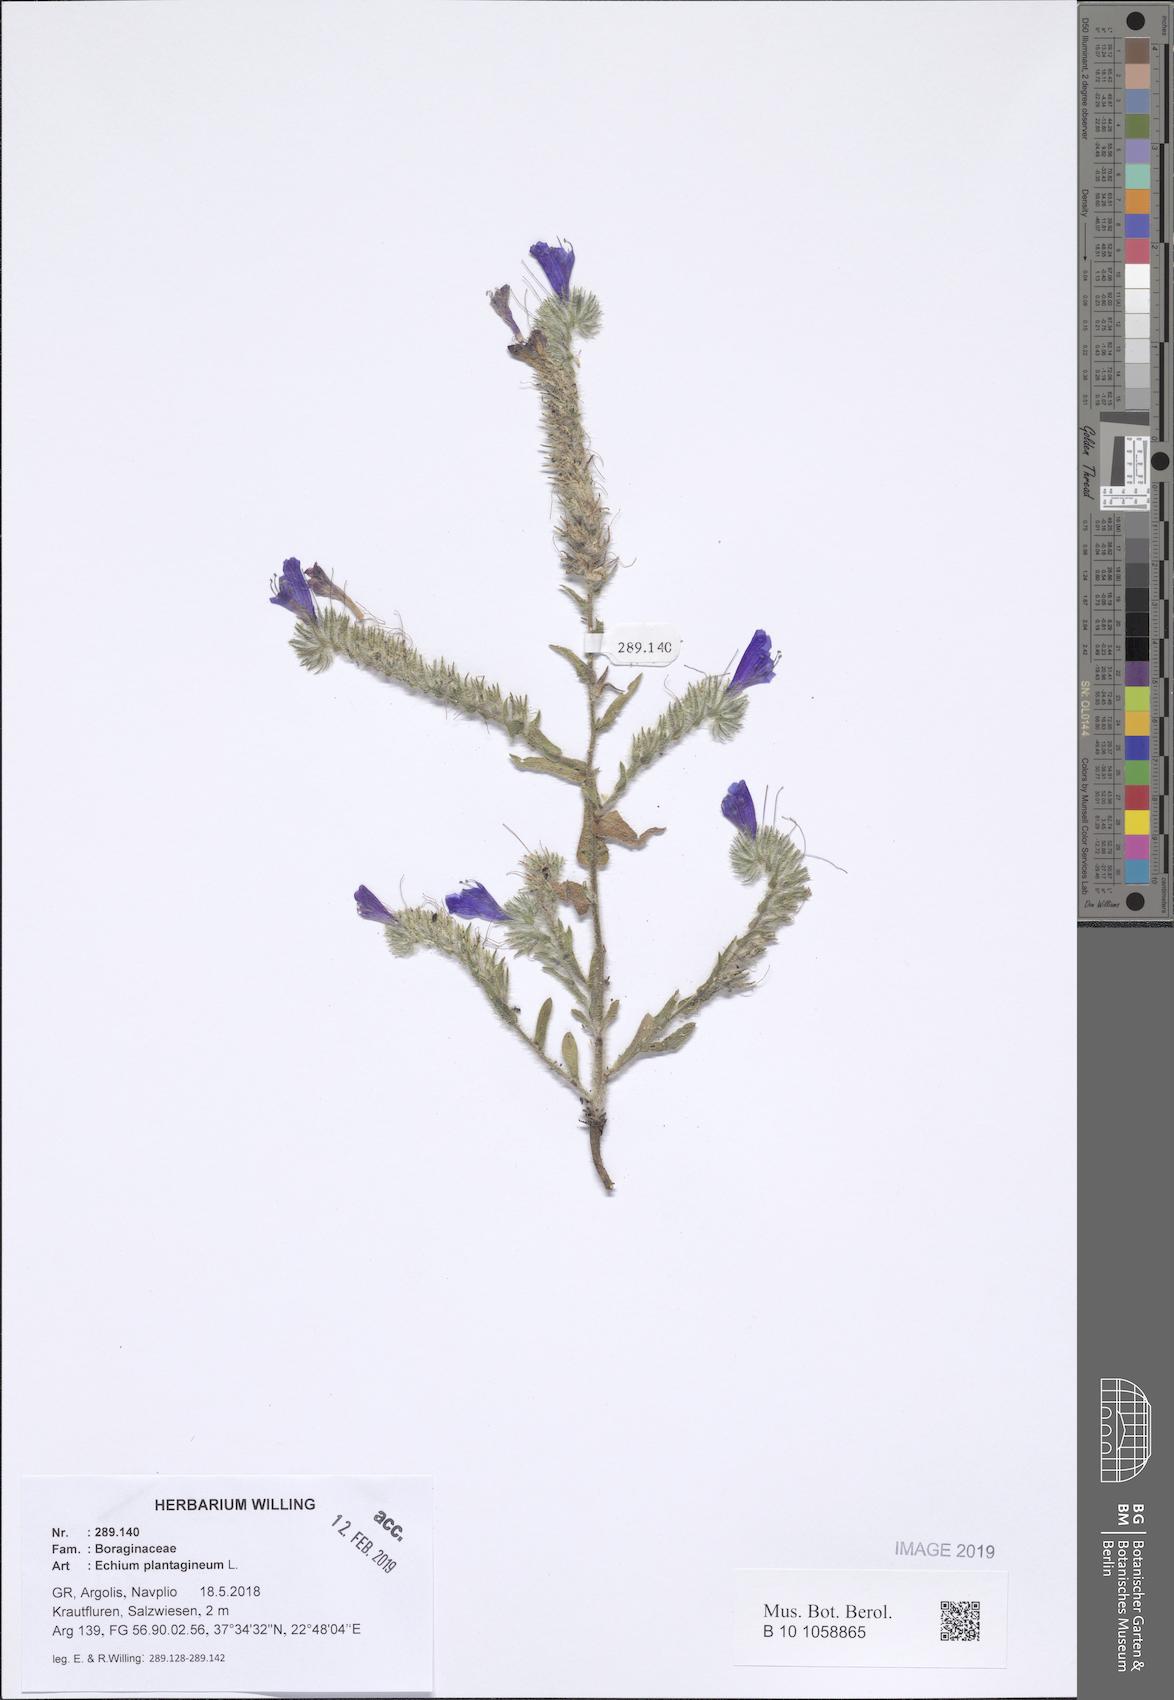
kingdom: Plantae
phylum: Tracheophyta
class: Magnoliopsida
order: Boraginales
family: Boraginaceae
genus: Echium
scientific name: Echium plantagineum
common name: Purple viper's-bugloss
